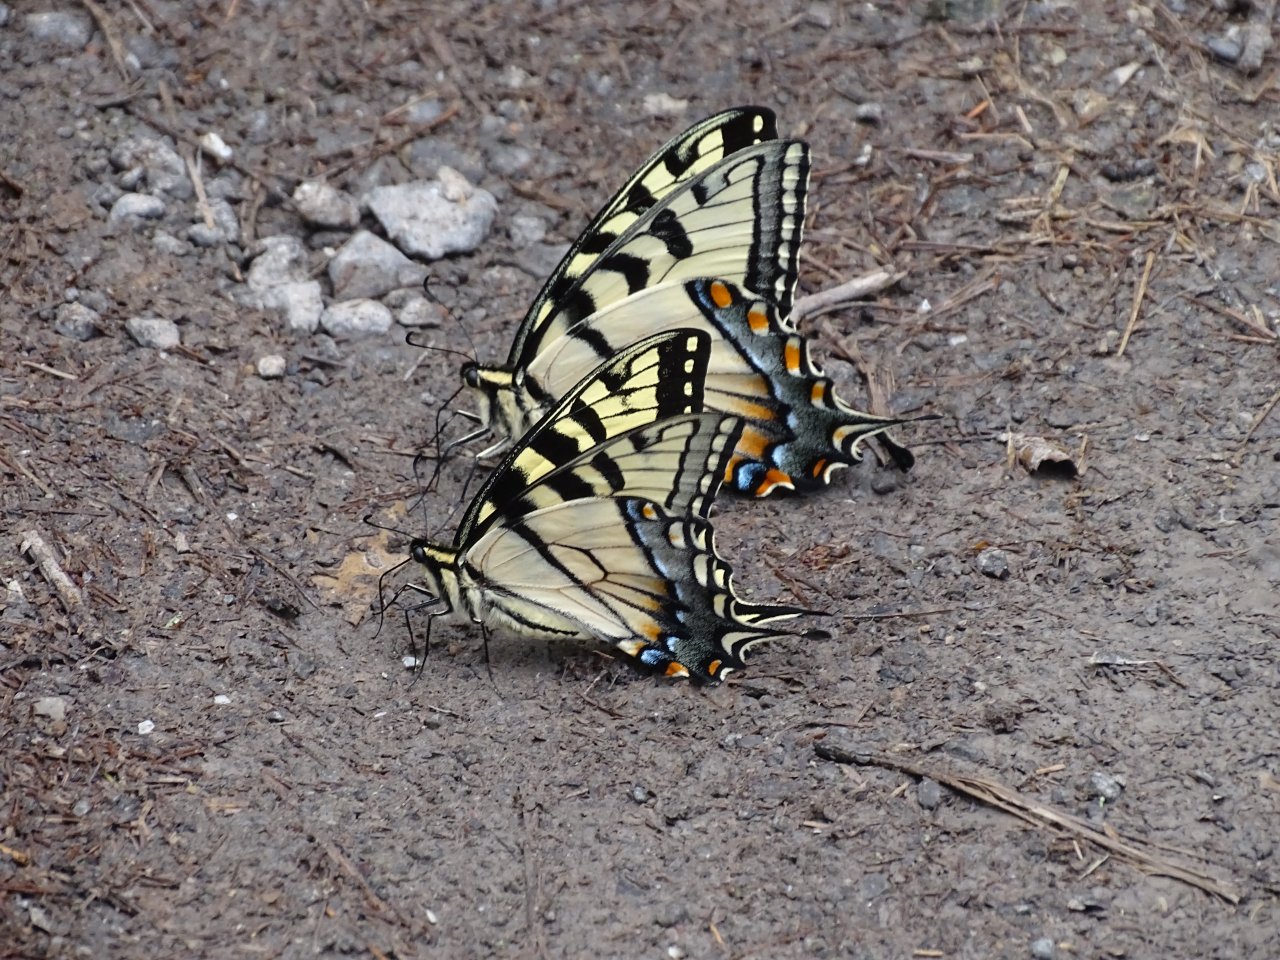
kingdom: Animalia
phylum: Arthropoda
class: Insecta
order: Lepidoptera
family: Papilionidae
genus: Pterourus
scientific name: Pterourus
